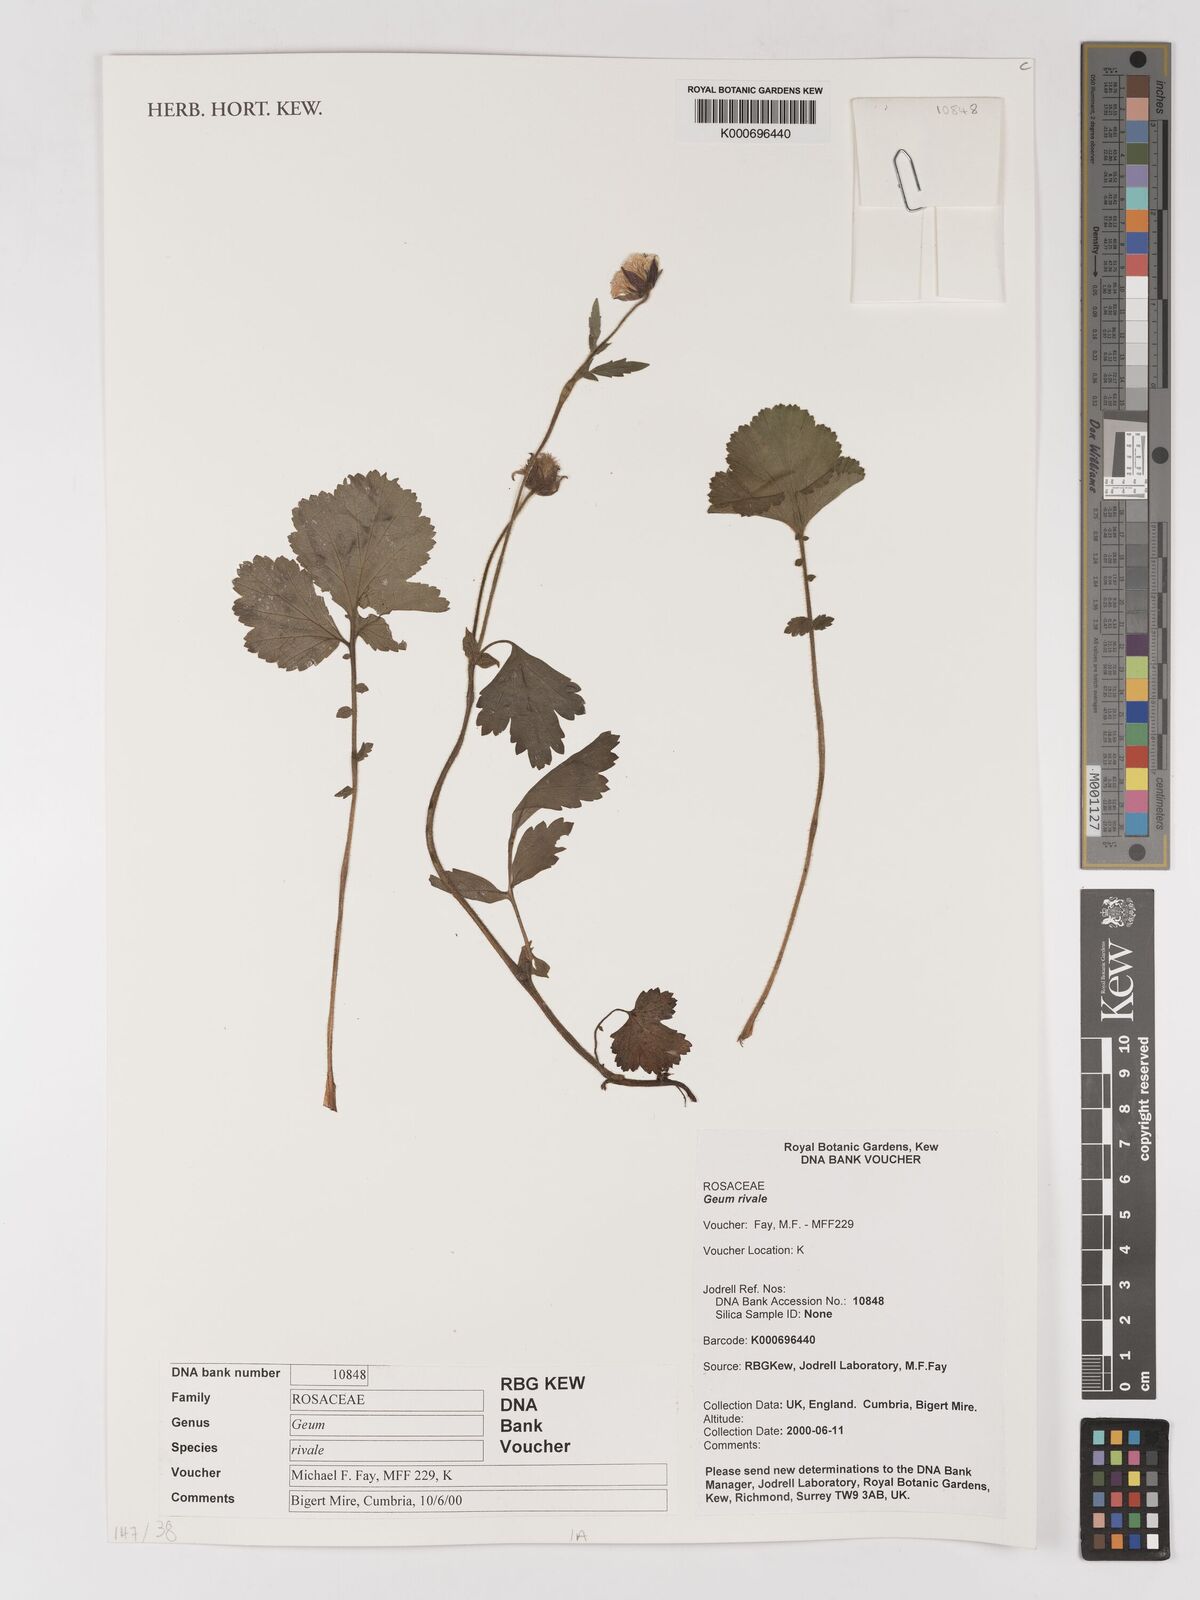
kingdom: Plantae
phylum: Tracheophyta
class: Magnoliopsida
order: Rosales
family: Rosaceae
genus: Geum
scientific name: Geum rivale
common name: Water avens
